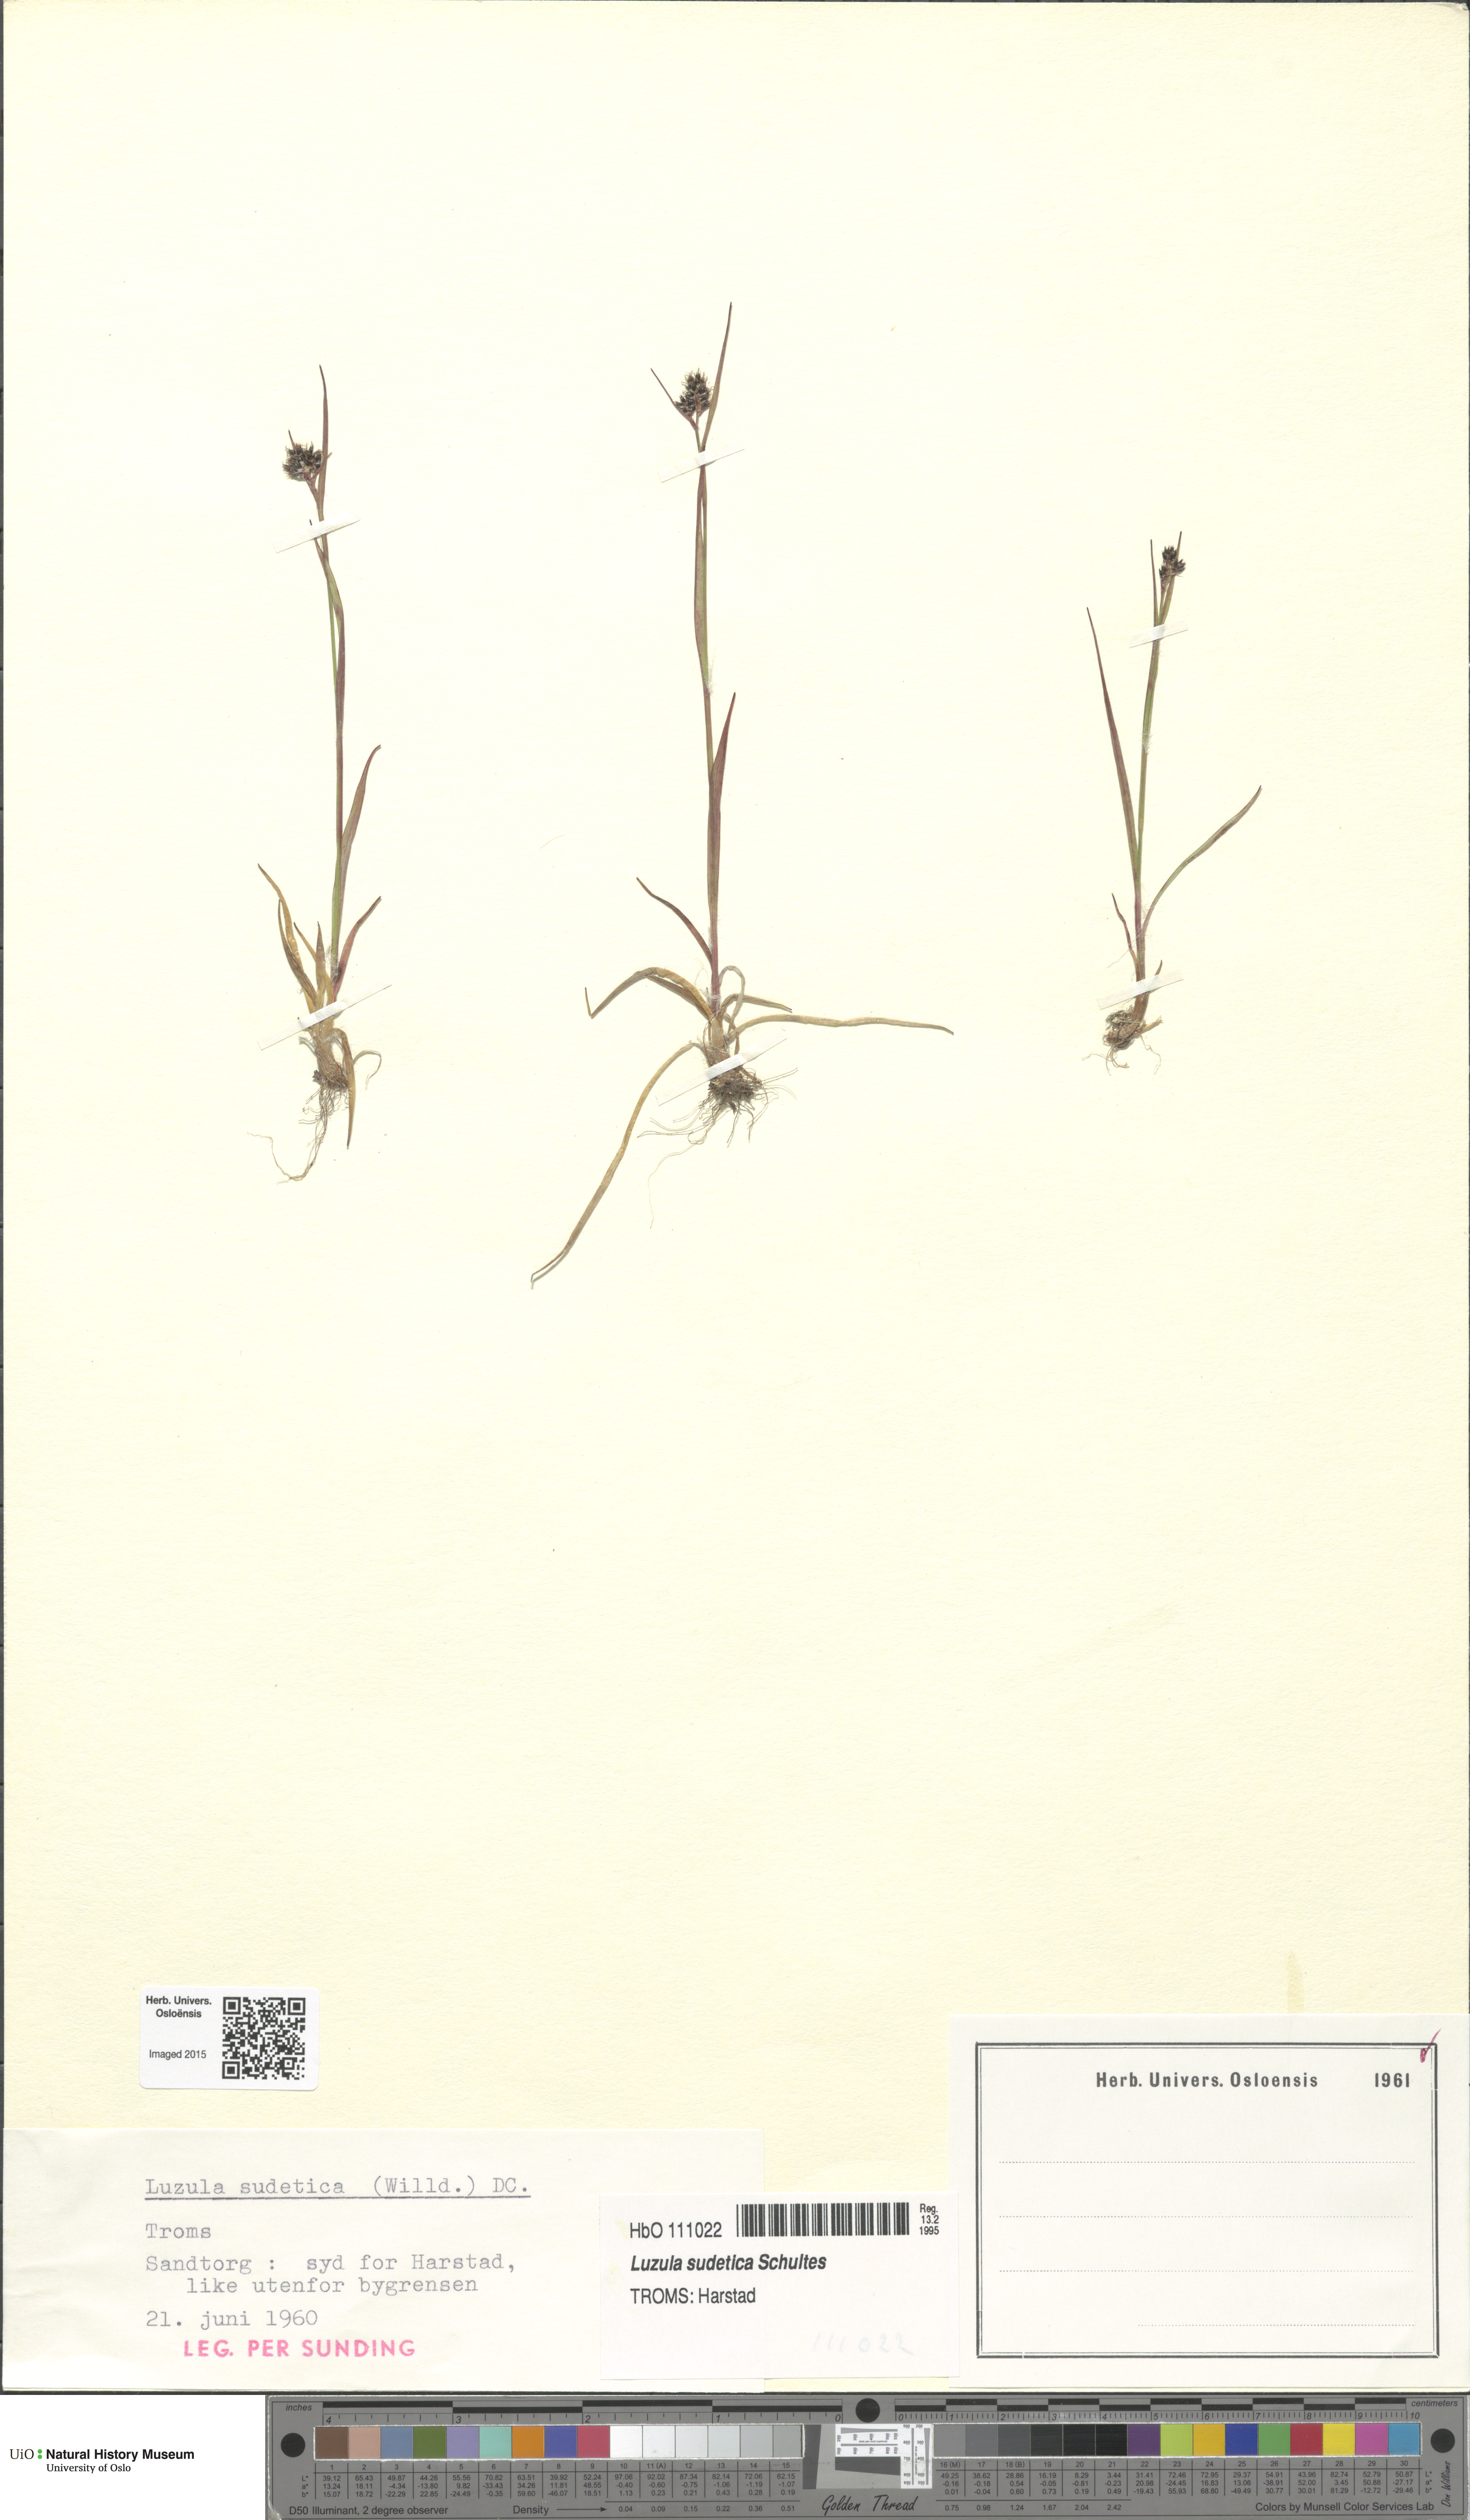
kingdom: Plantae
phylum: Tracheophyta
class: Liliopsida
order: Poales
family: Juncaceae
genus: Luzula
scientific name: Luzula sudetica
